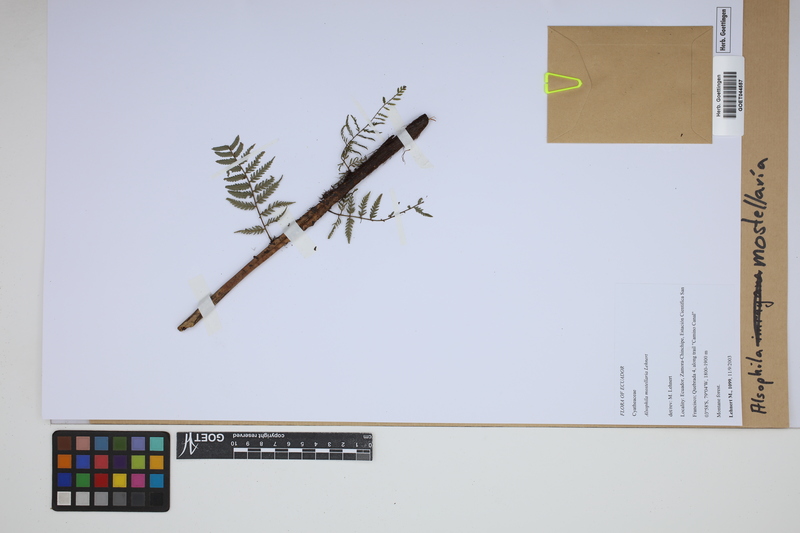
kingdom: Plantae
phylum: Tracheophyta
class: Polypodiopsida
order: Cyatheales
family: Cyatheaceae
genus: Alsophila
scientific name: Alsophila mostellaria
